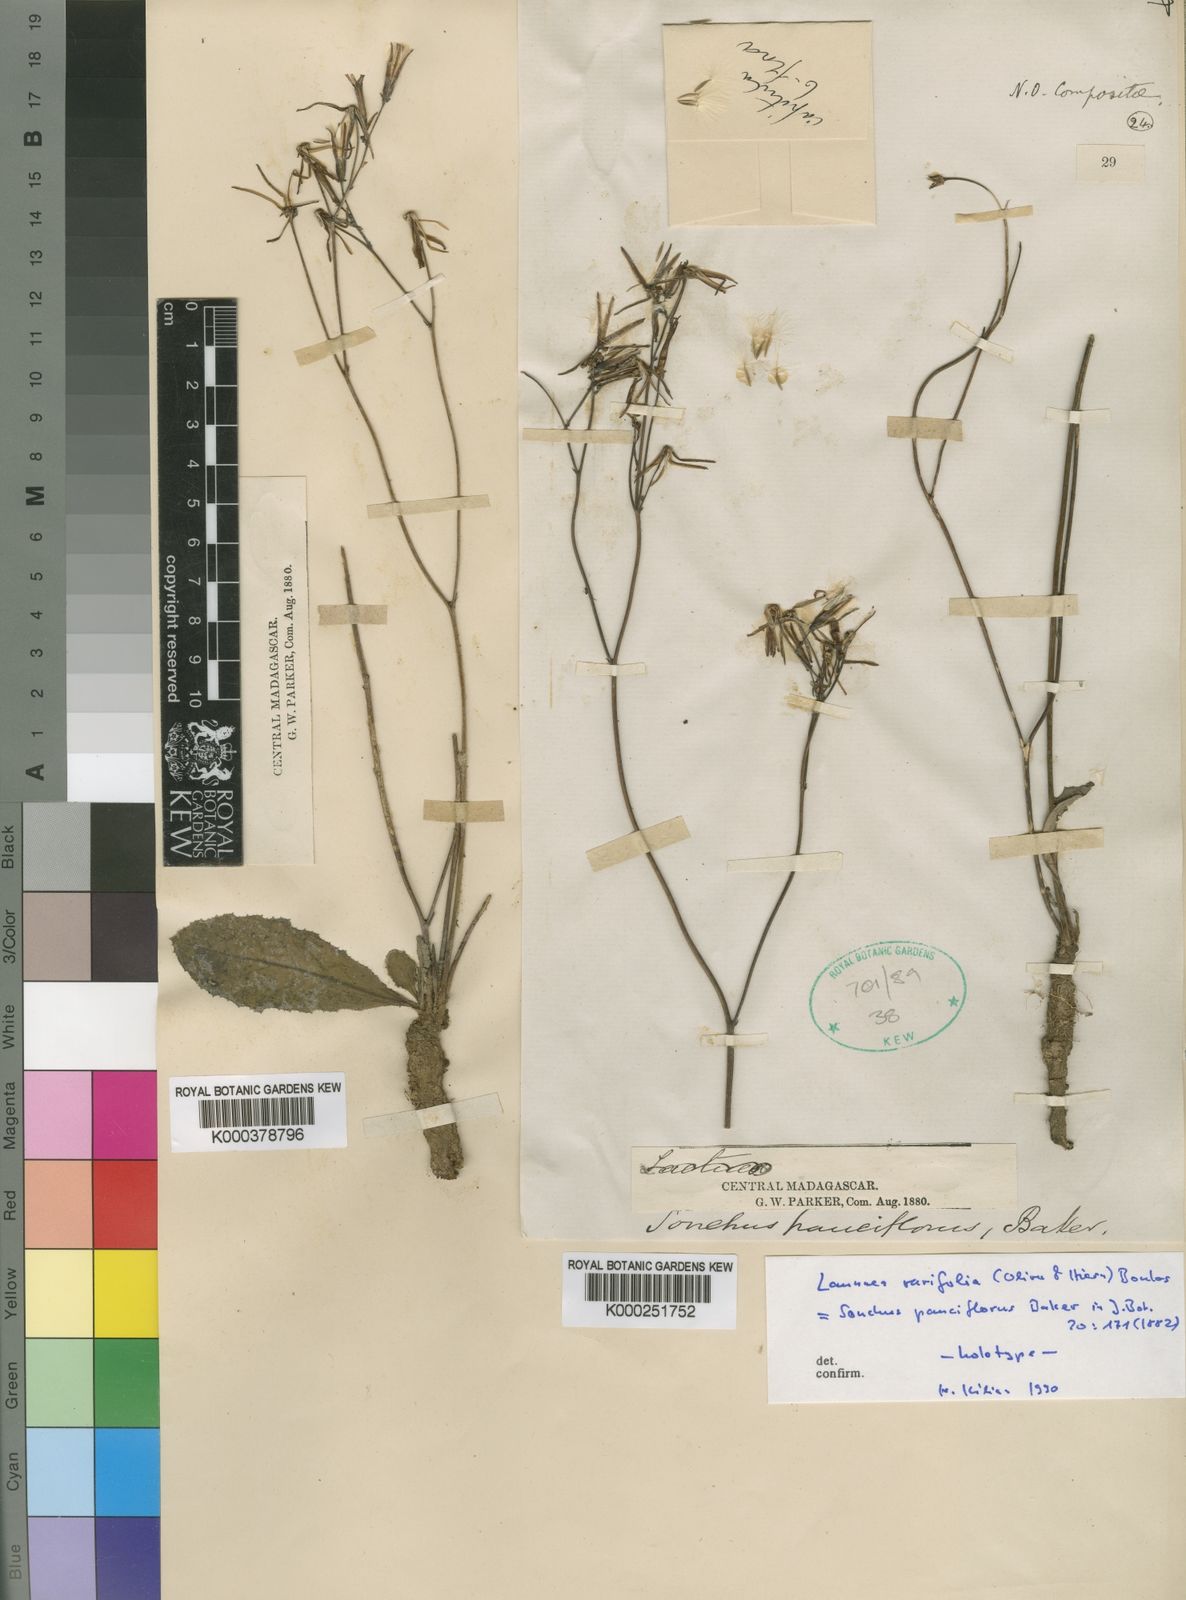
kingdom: Plantae
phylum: Tracheophyta
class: Magnoliopsida
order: Asterales
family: Asteraceae
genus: Launaea
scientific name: Launaea rarifolia
